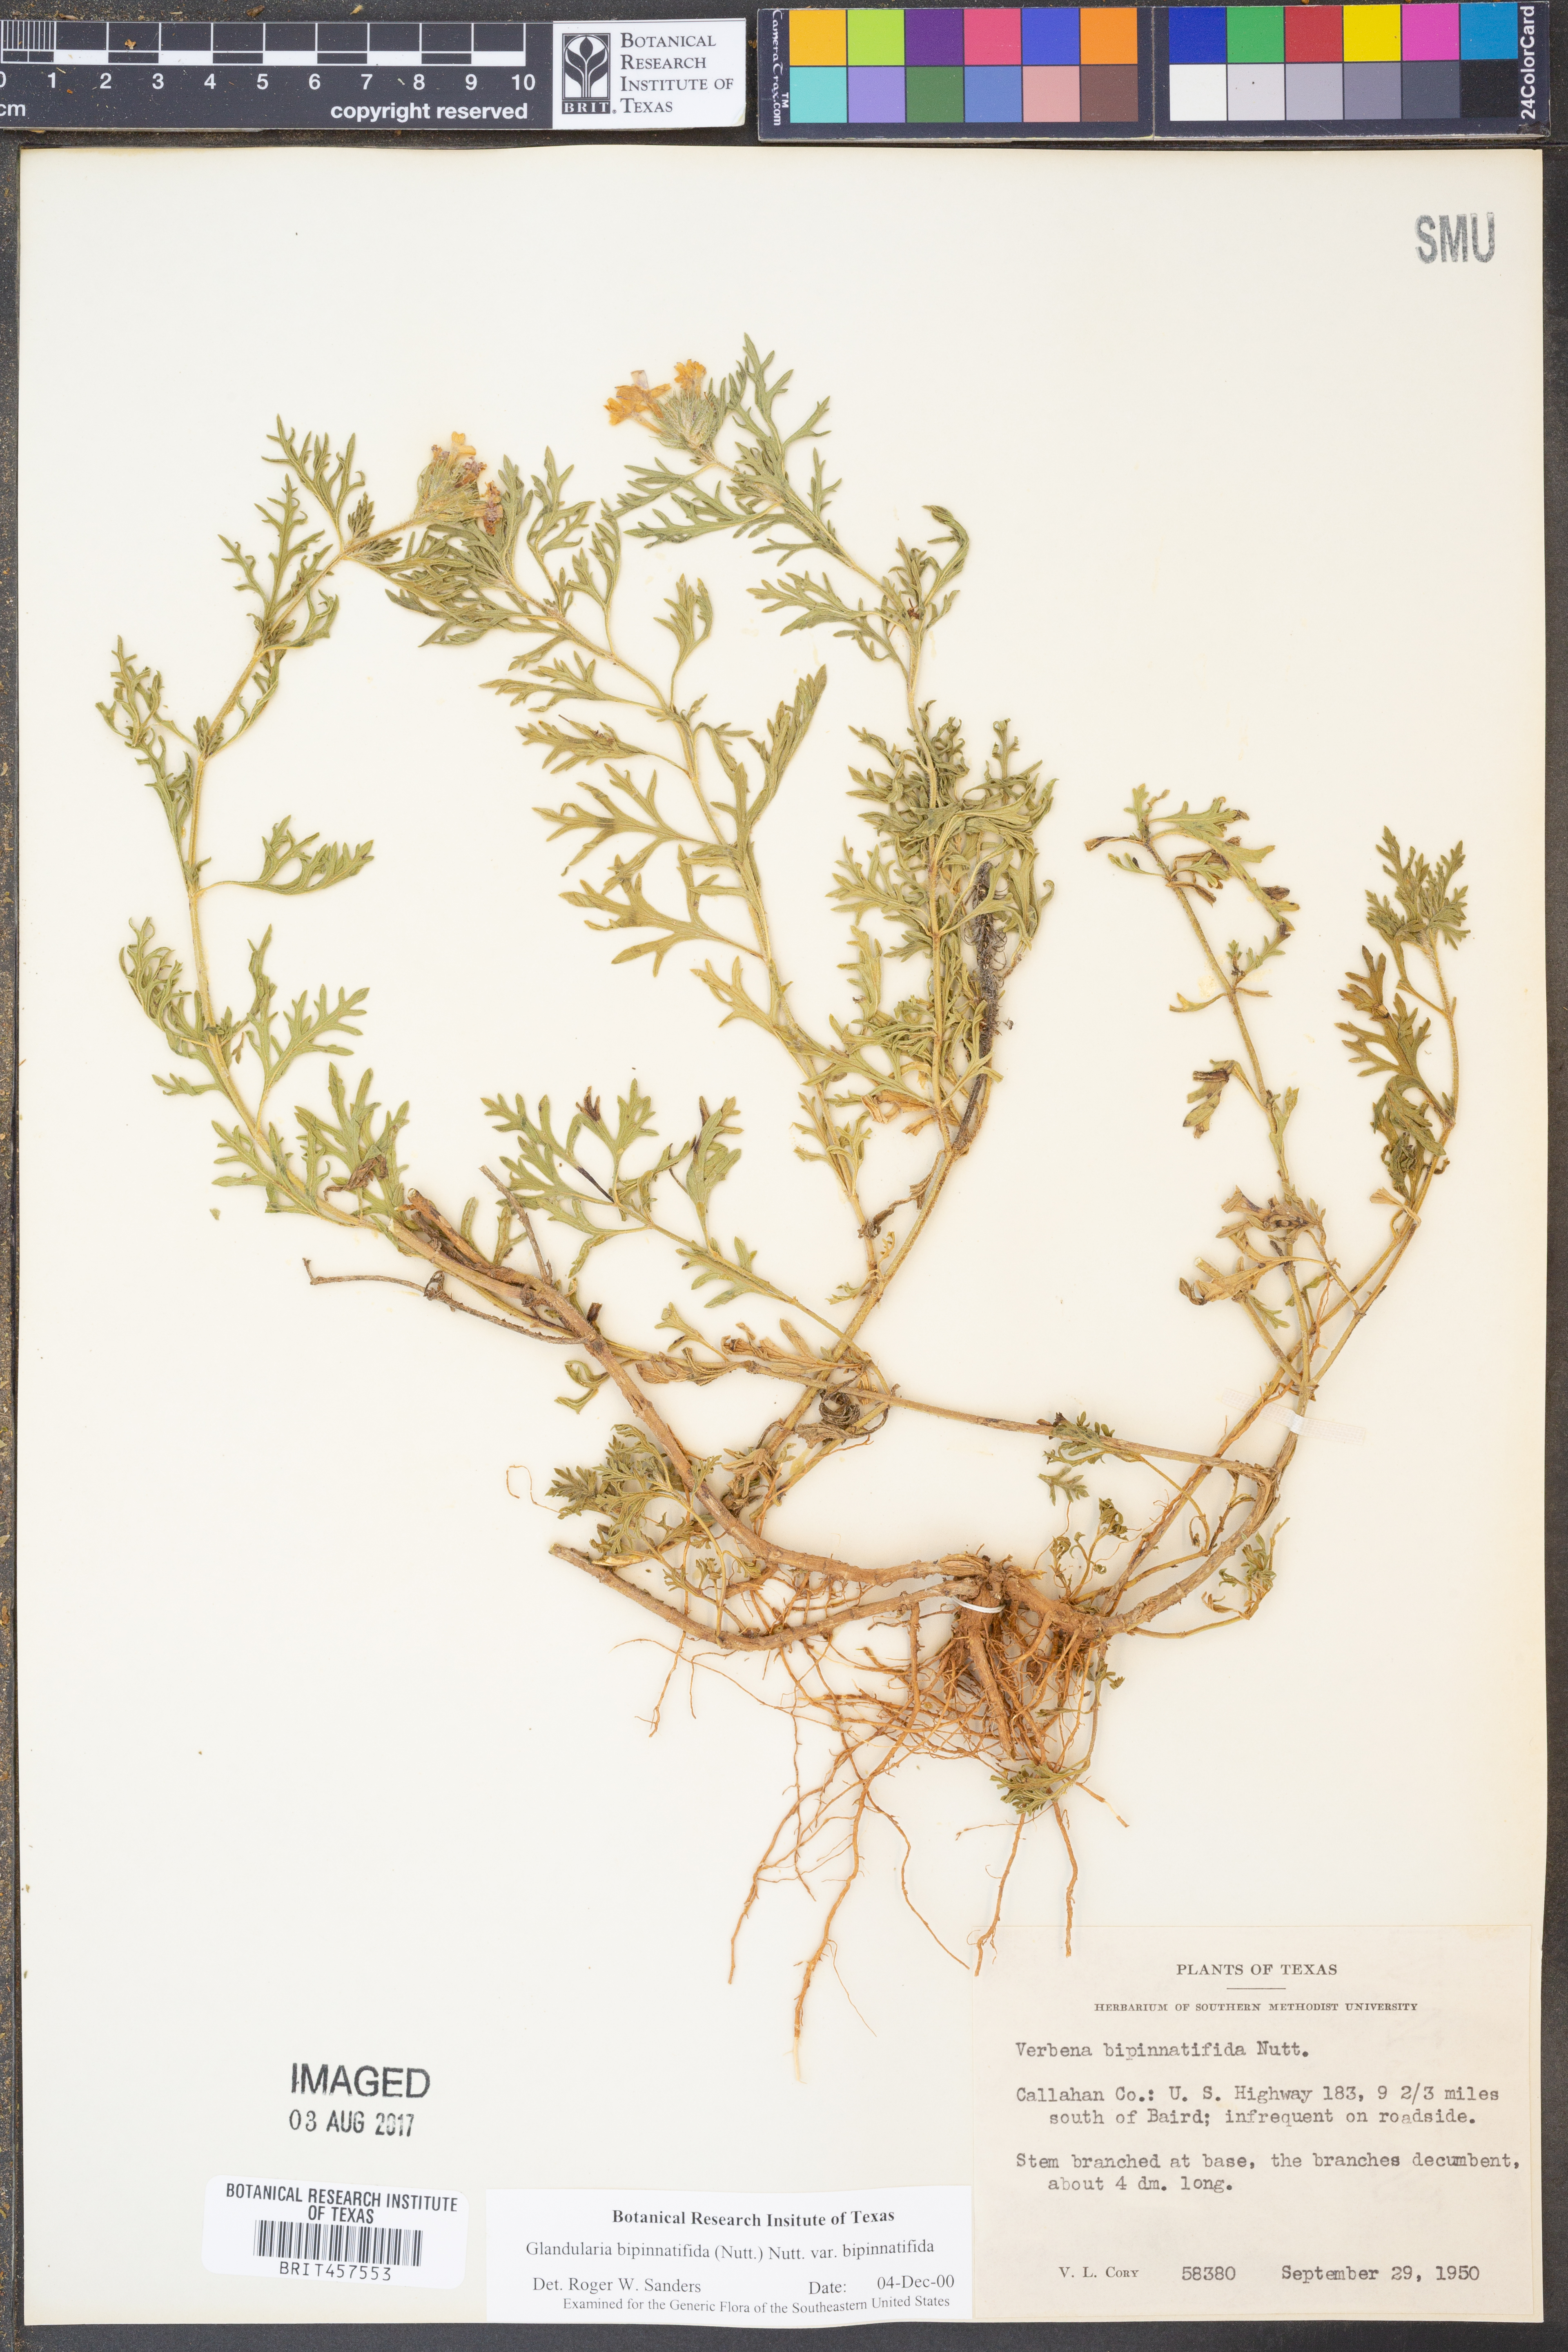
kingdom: Plantae
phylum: Tracheophyta
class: Magnoliopsida
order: Lamiales
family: Verbenaceae
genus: Verbena
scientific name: Verbena bipinnatifida
